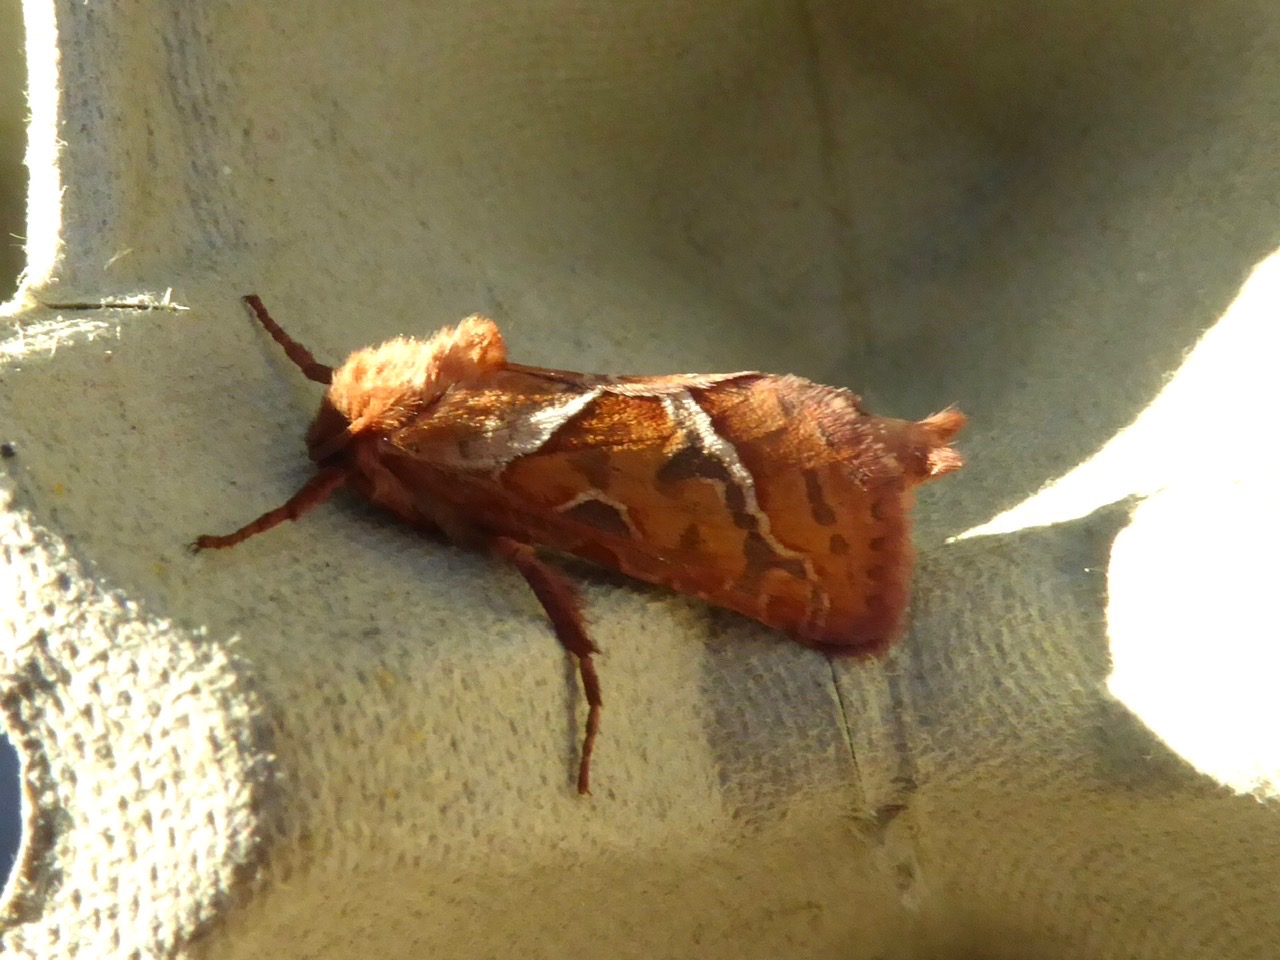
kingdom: Animalia
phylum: Arthropoda
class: Insecta
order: Lepidoptera
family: Hepialidae
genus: Triodia
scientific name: Triodia sylvina
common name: Skræpperodæder
